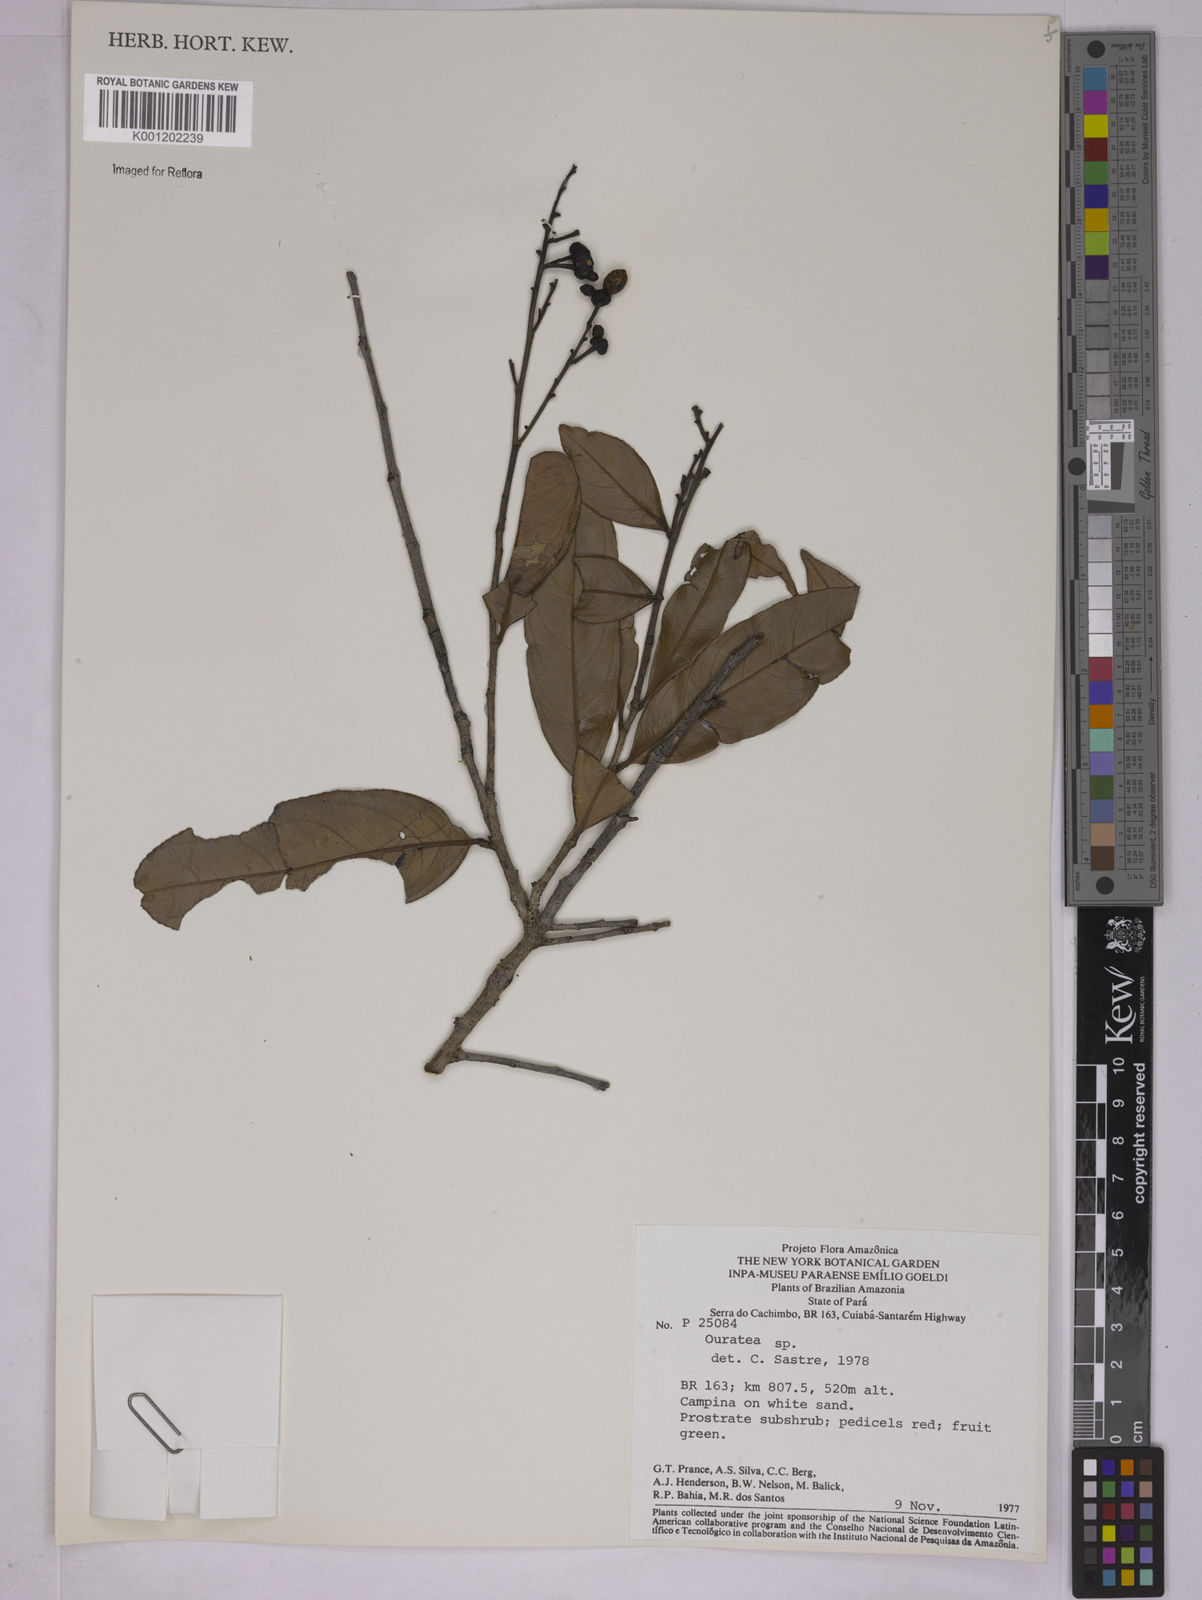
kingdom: Plantae
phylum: Tracheophyta
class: Magnoliopsida
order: Malpighiales
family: Ochnaceae
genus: Ouratea
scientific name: Ouratea
